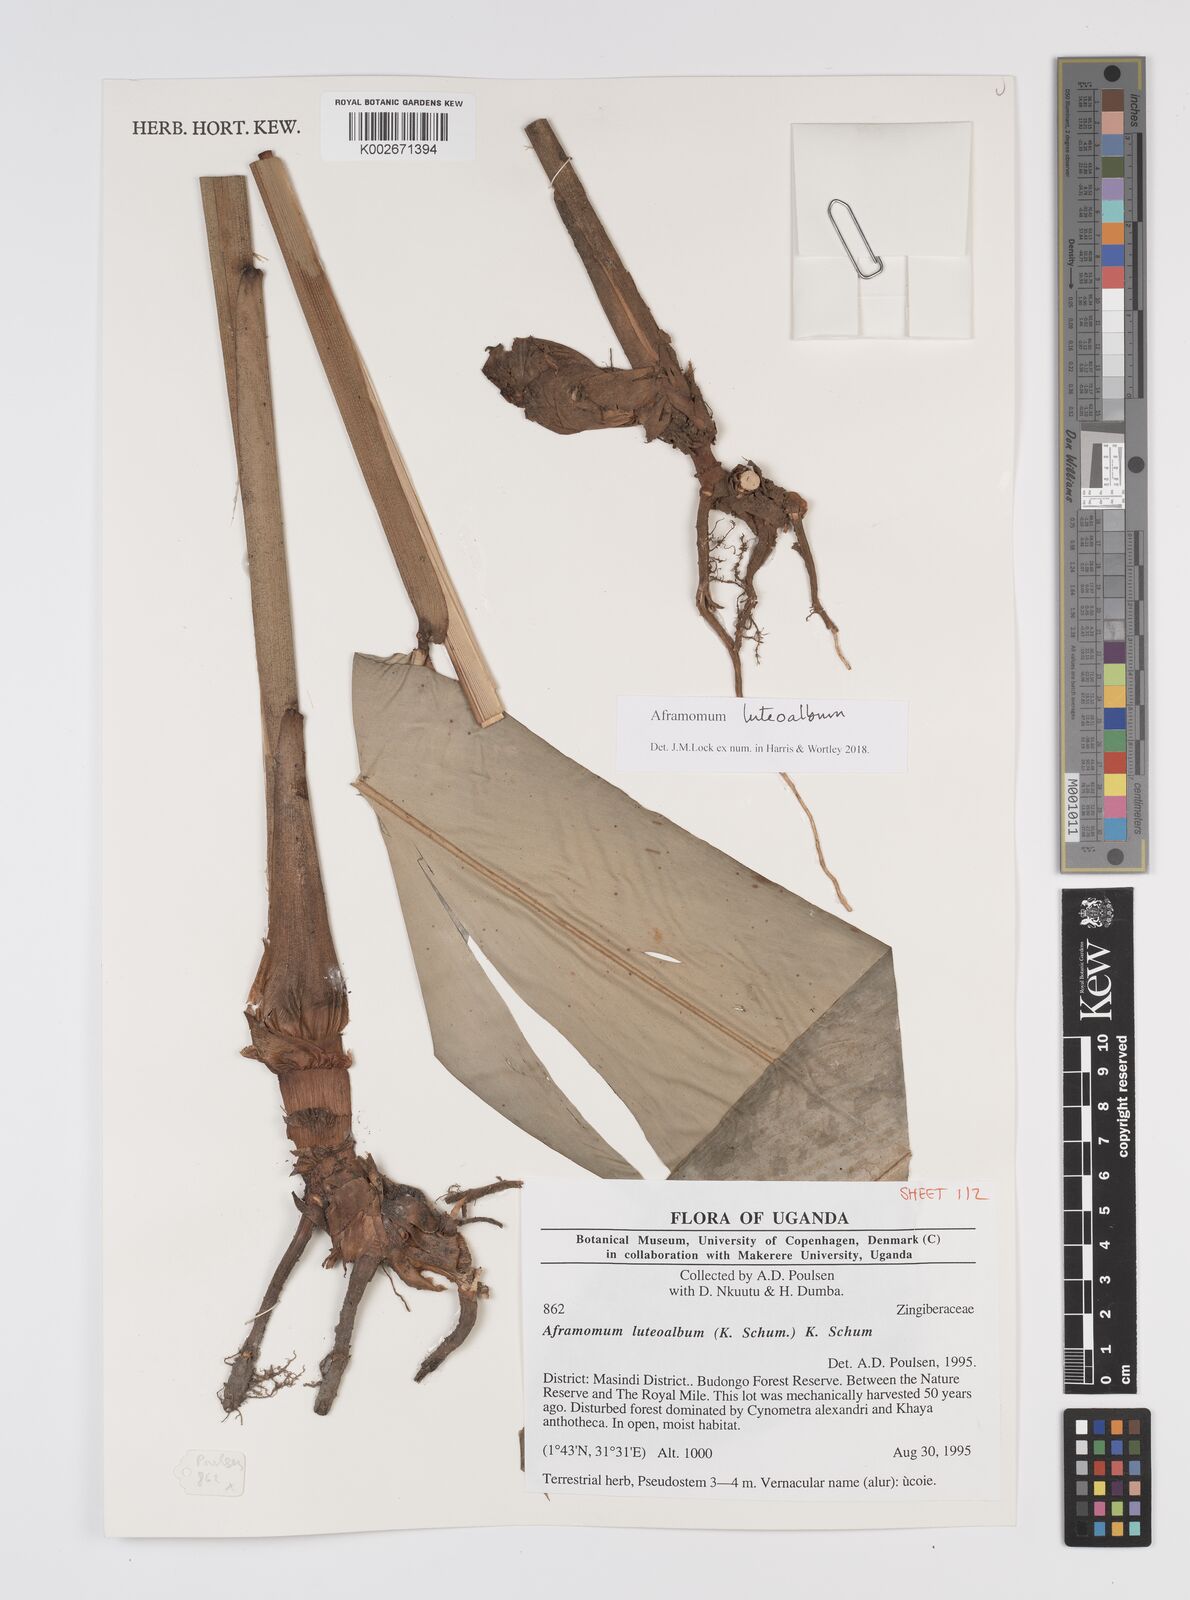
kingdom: Plantae
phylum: Tracheophyta
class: Liliopsida
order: Zingiberales
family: Zingiberaceae
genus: Aframomum
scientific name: Aframomum luteoalbum
